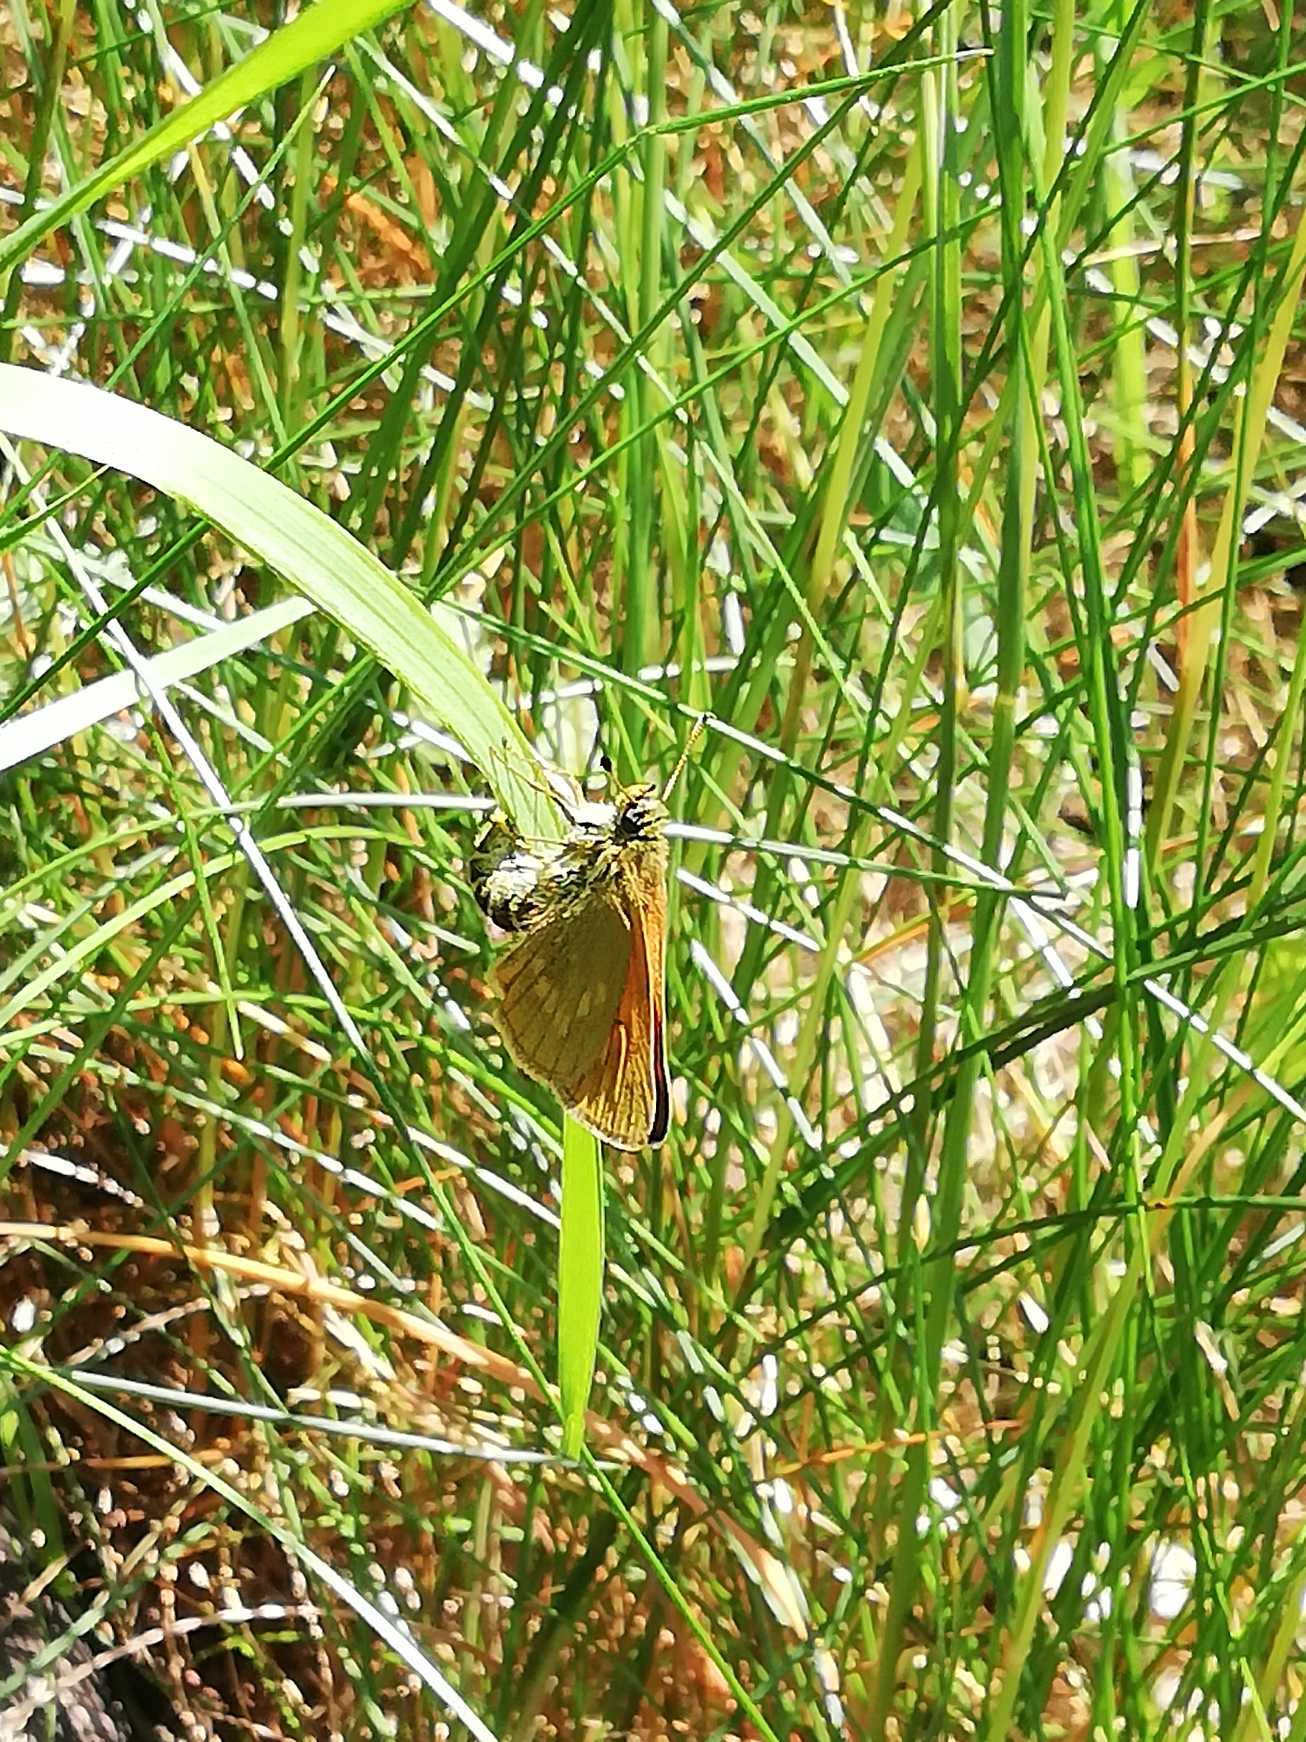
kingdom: Animalia
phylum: Arthropoda
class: Insecta
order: Lepidoptera
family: Hesperiidae
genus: Ochlodes
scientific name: Ochlodes venata
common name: Stor bredpande
